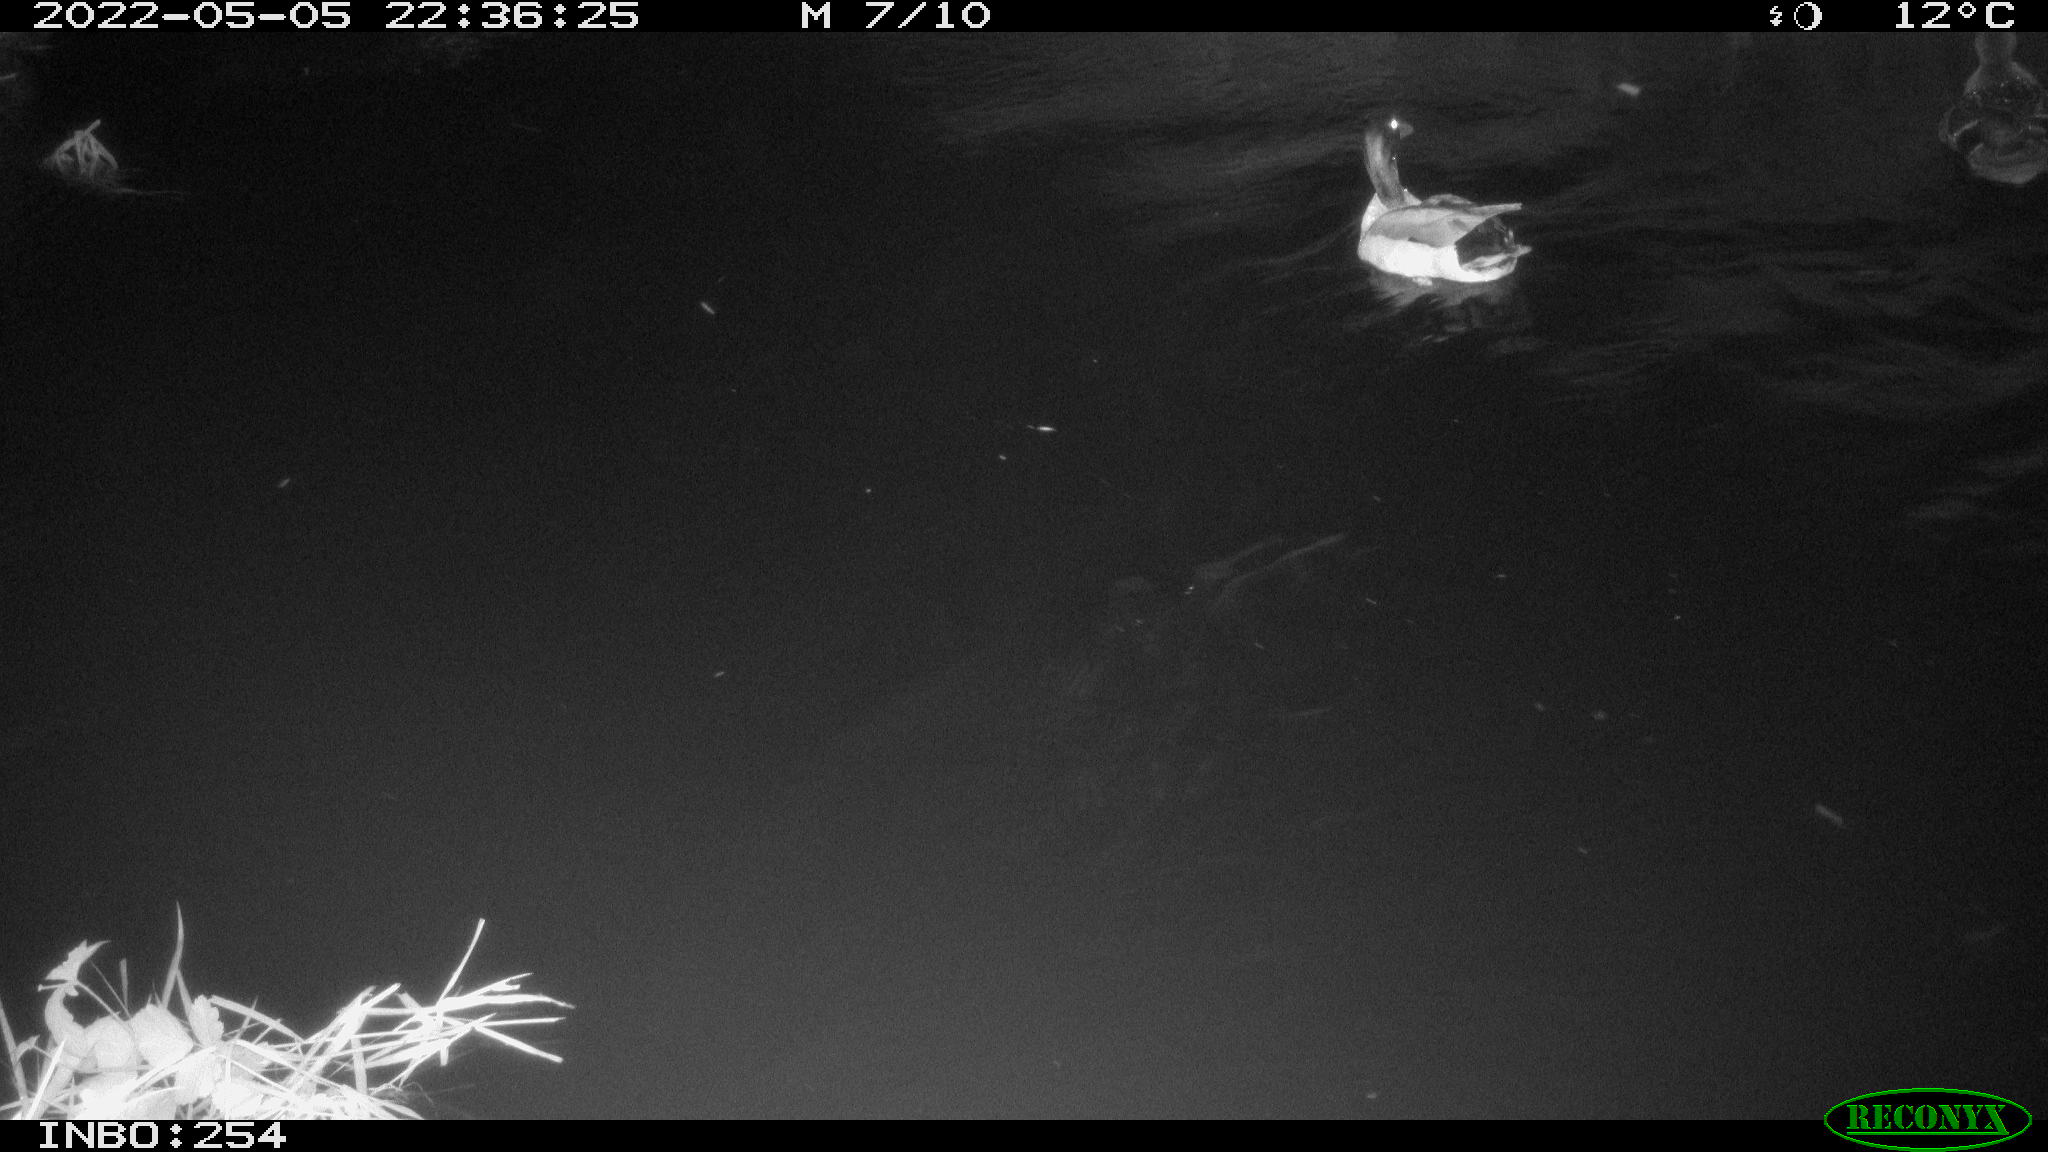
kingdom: Animalia
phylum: Chordata
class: Aves
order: Anseriformes
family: Anatidae
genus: Anas
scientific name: Anas platyrhynchos
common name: Mallard
